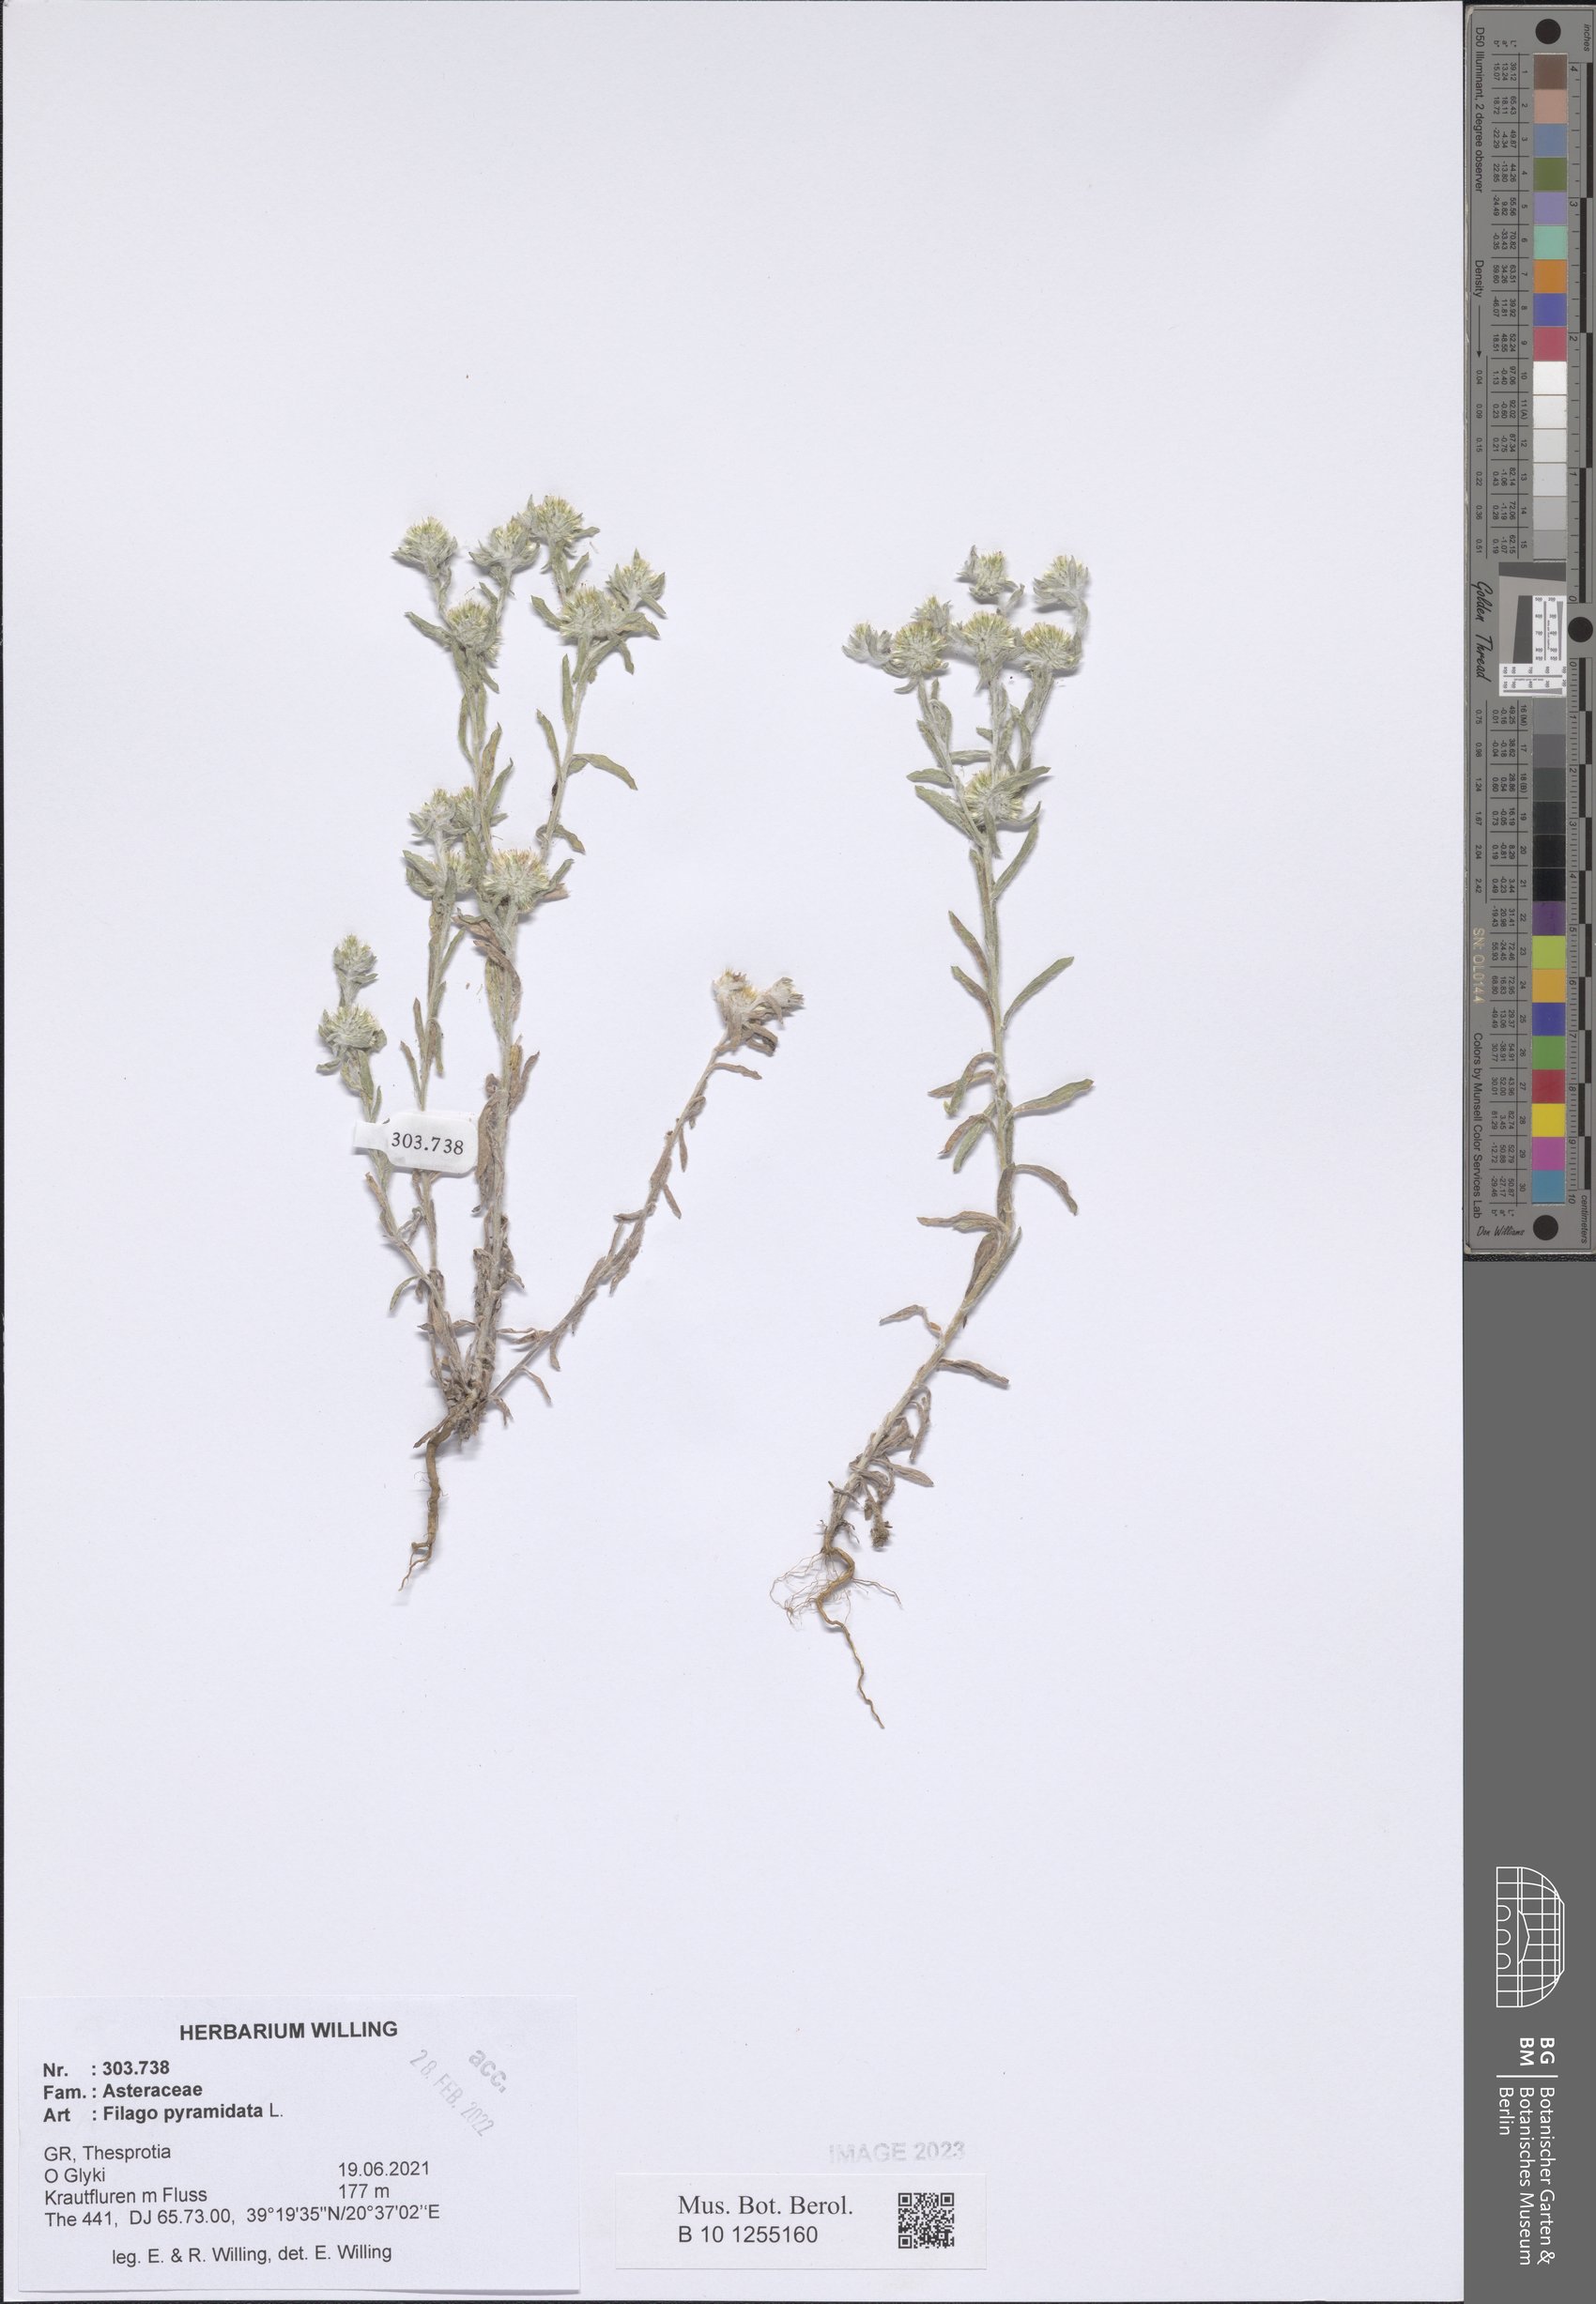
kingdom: Plantae
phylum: Tracheophyta
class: Magnoliopsida
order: Asterales
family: Asteraceae
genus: Filago
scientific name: Filago pyramidata
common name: Broad-leaved cudweed
